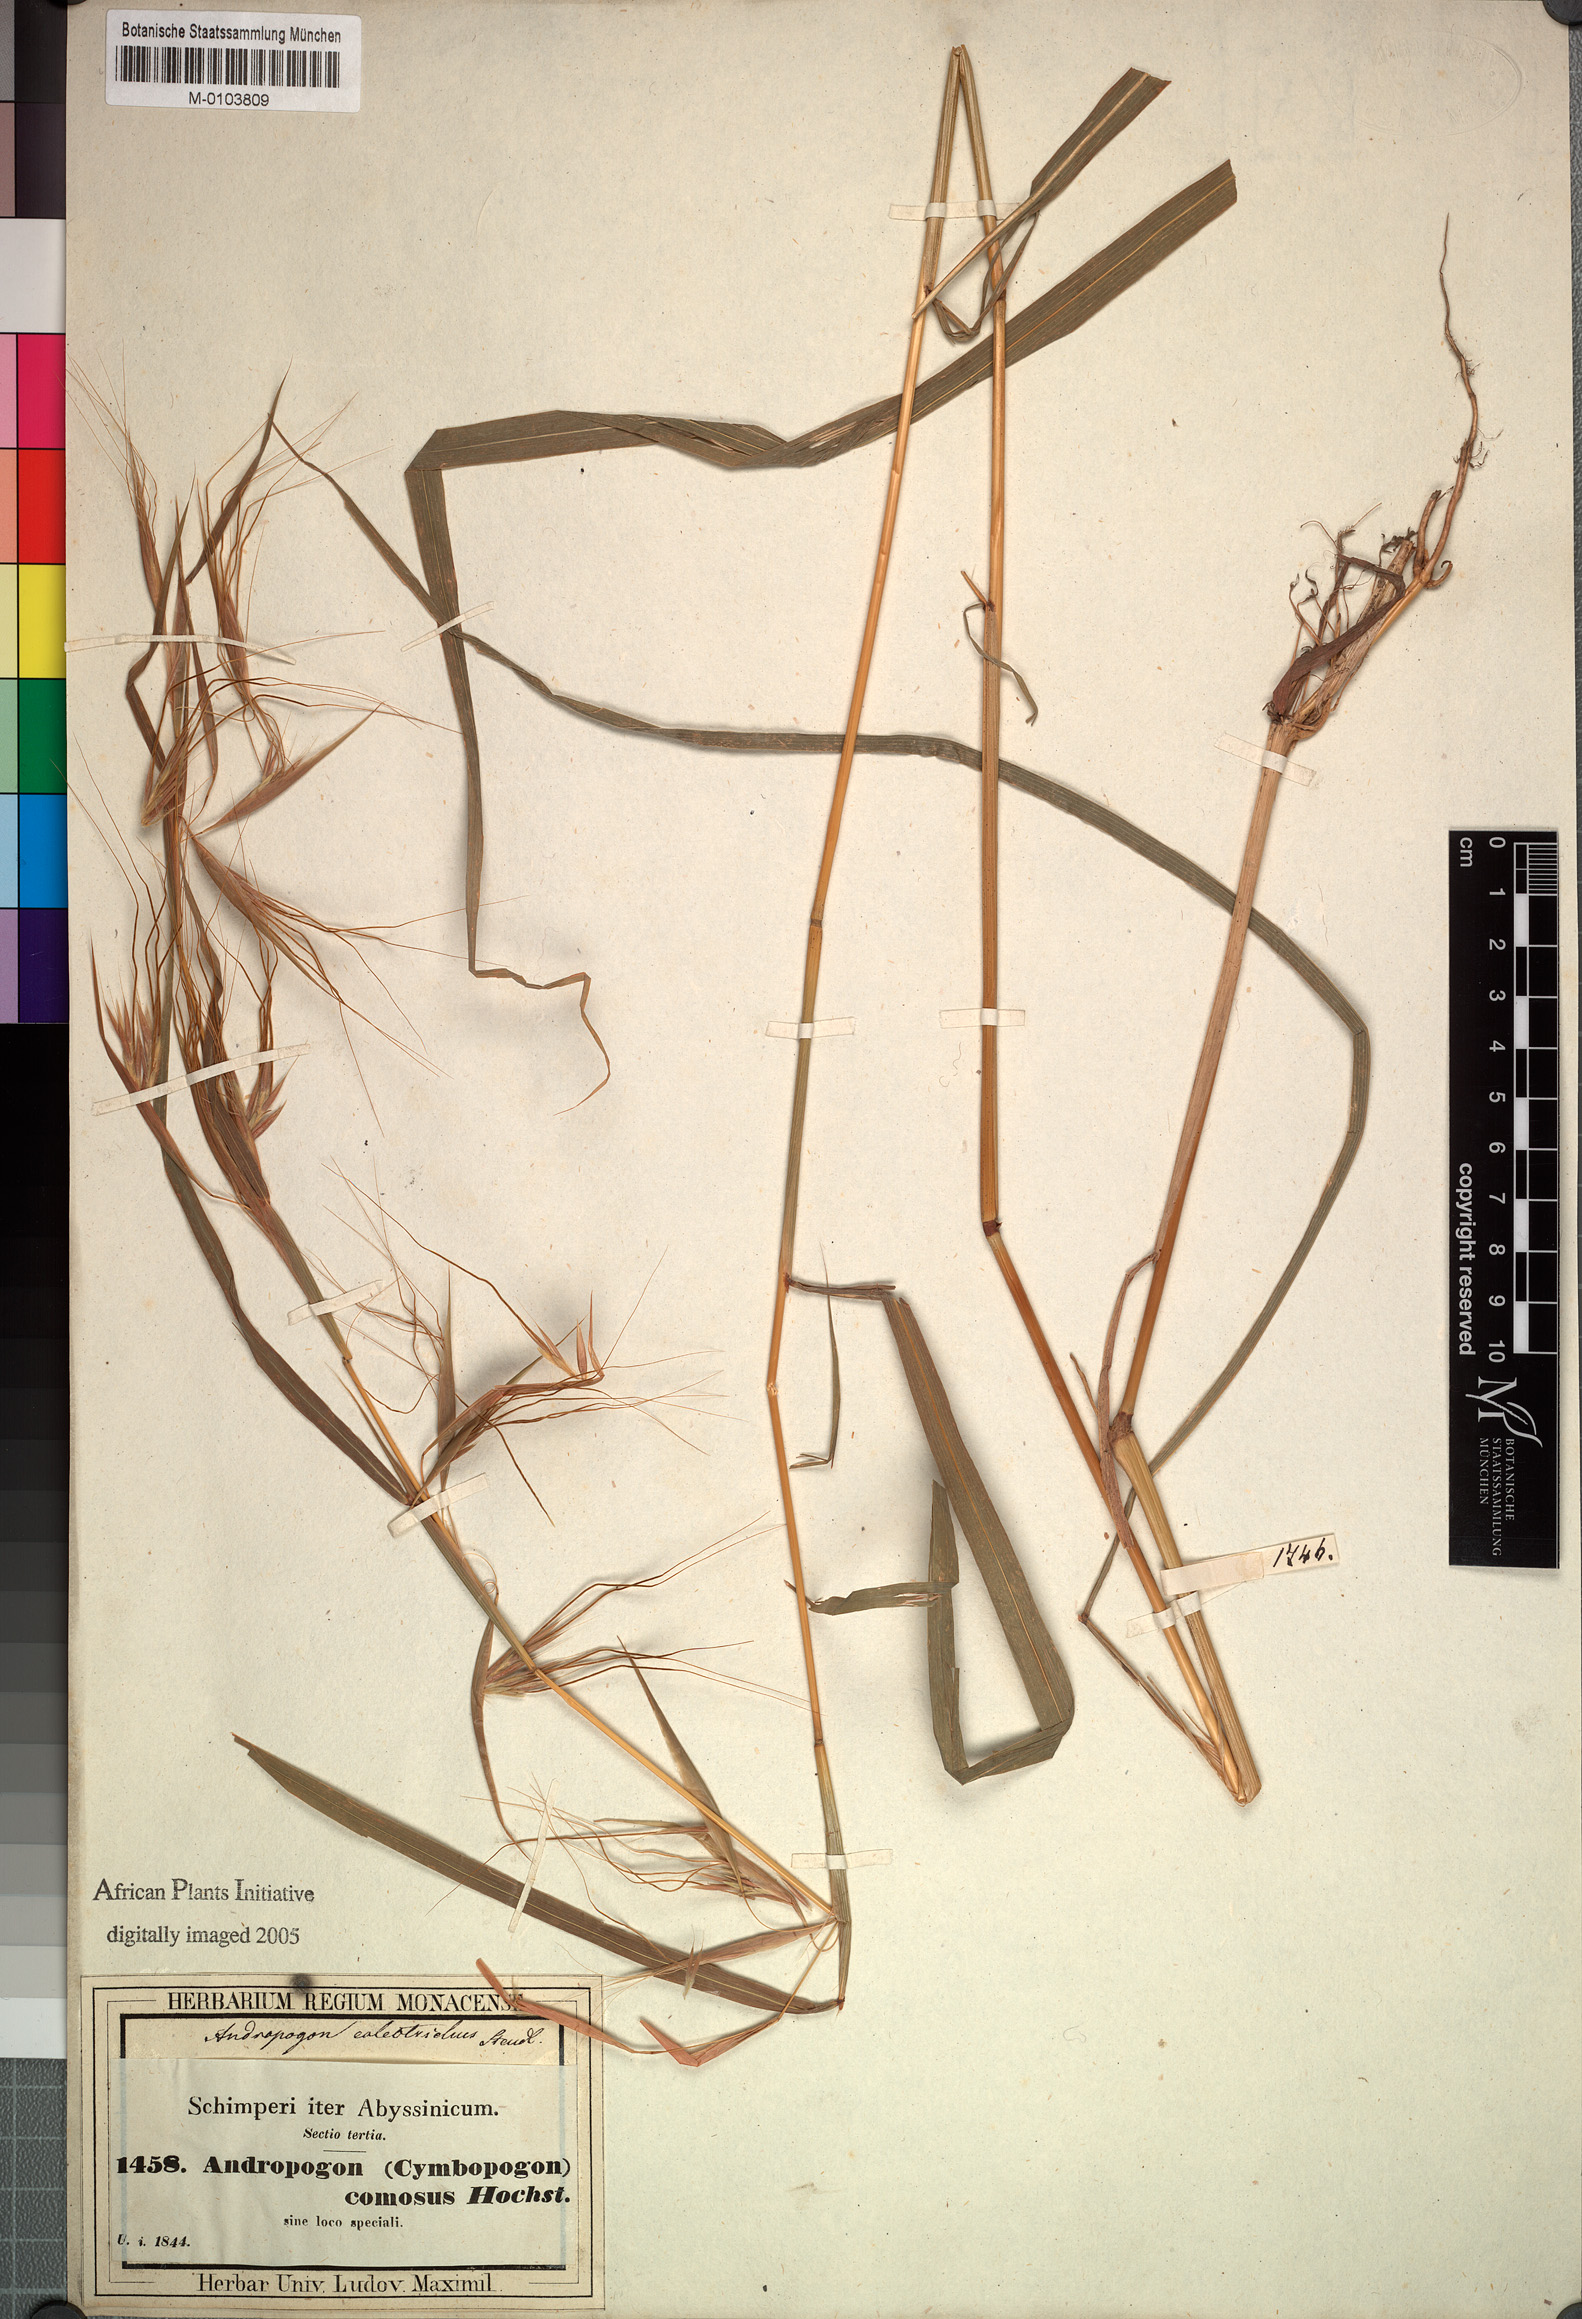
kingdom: Plantae
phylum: Tracheophyta
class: Liliopsida
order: Poales
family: Poaceae
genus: Hyparrhenia
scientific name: Hyparrhenia coleotricha
